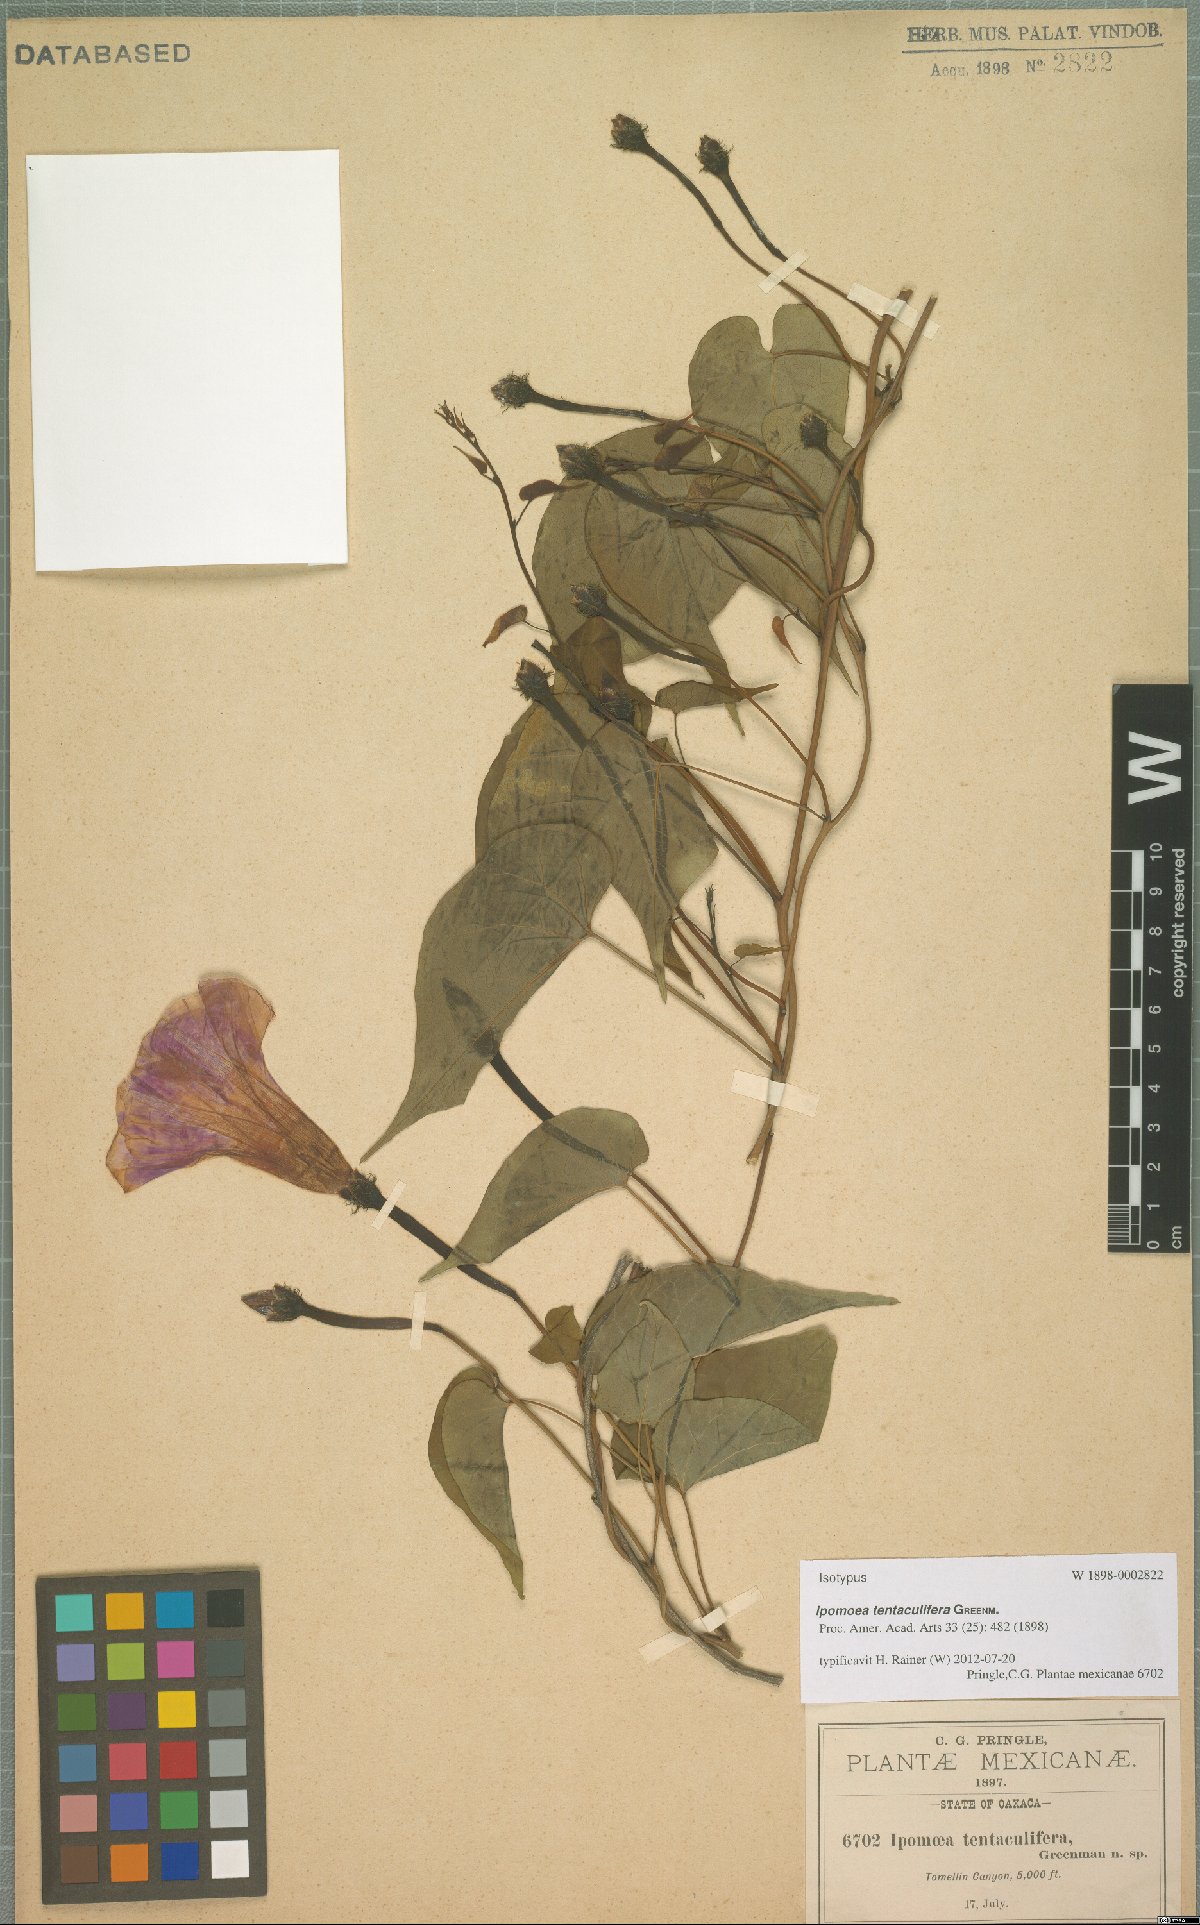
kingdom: Plantae
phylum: Tracheophyta
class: Magnoliopsida
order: Solanales
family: Convolvulaceae
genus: Ipomoea
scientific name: Ipomoea tentaculifera
